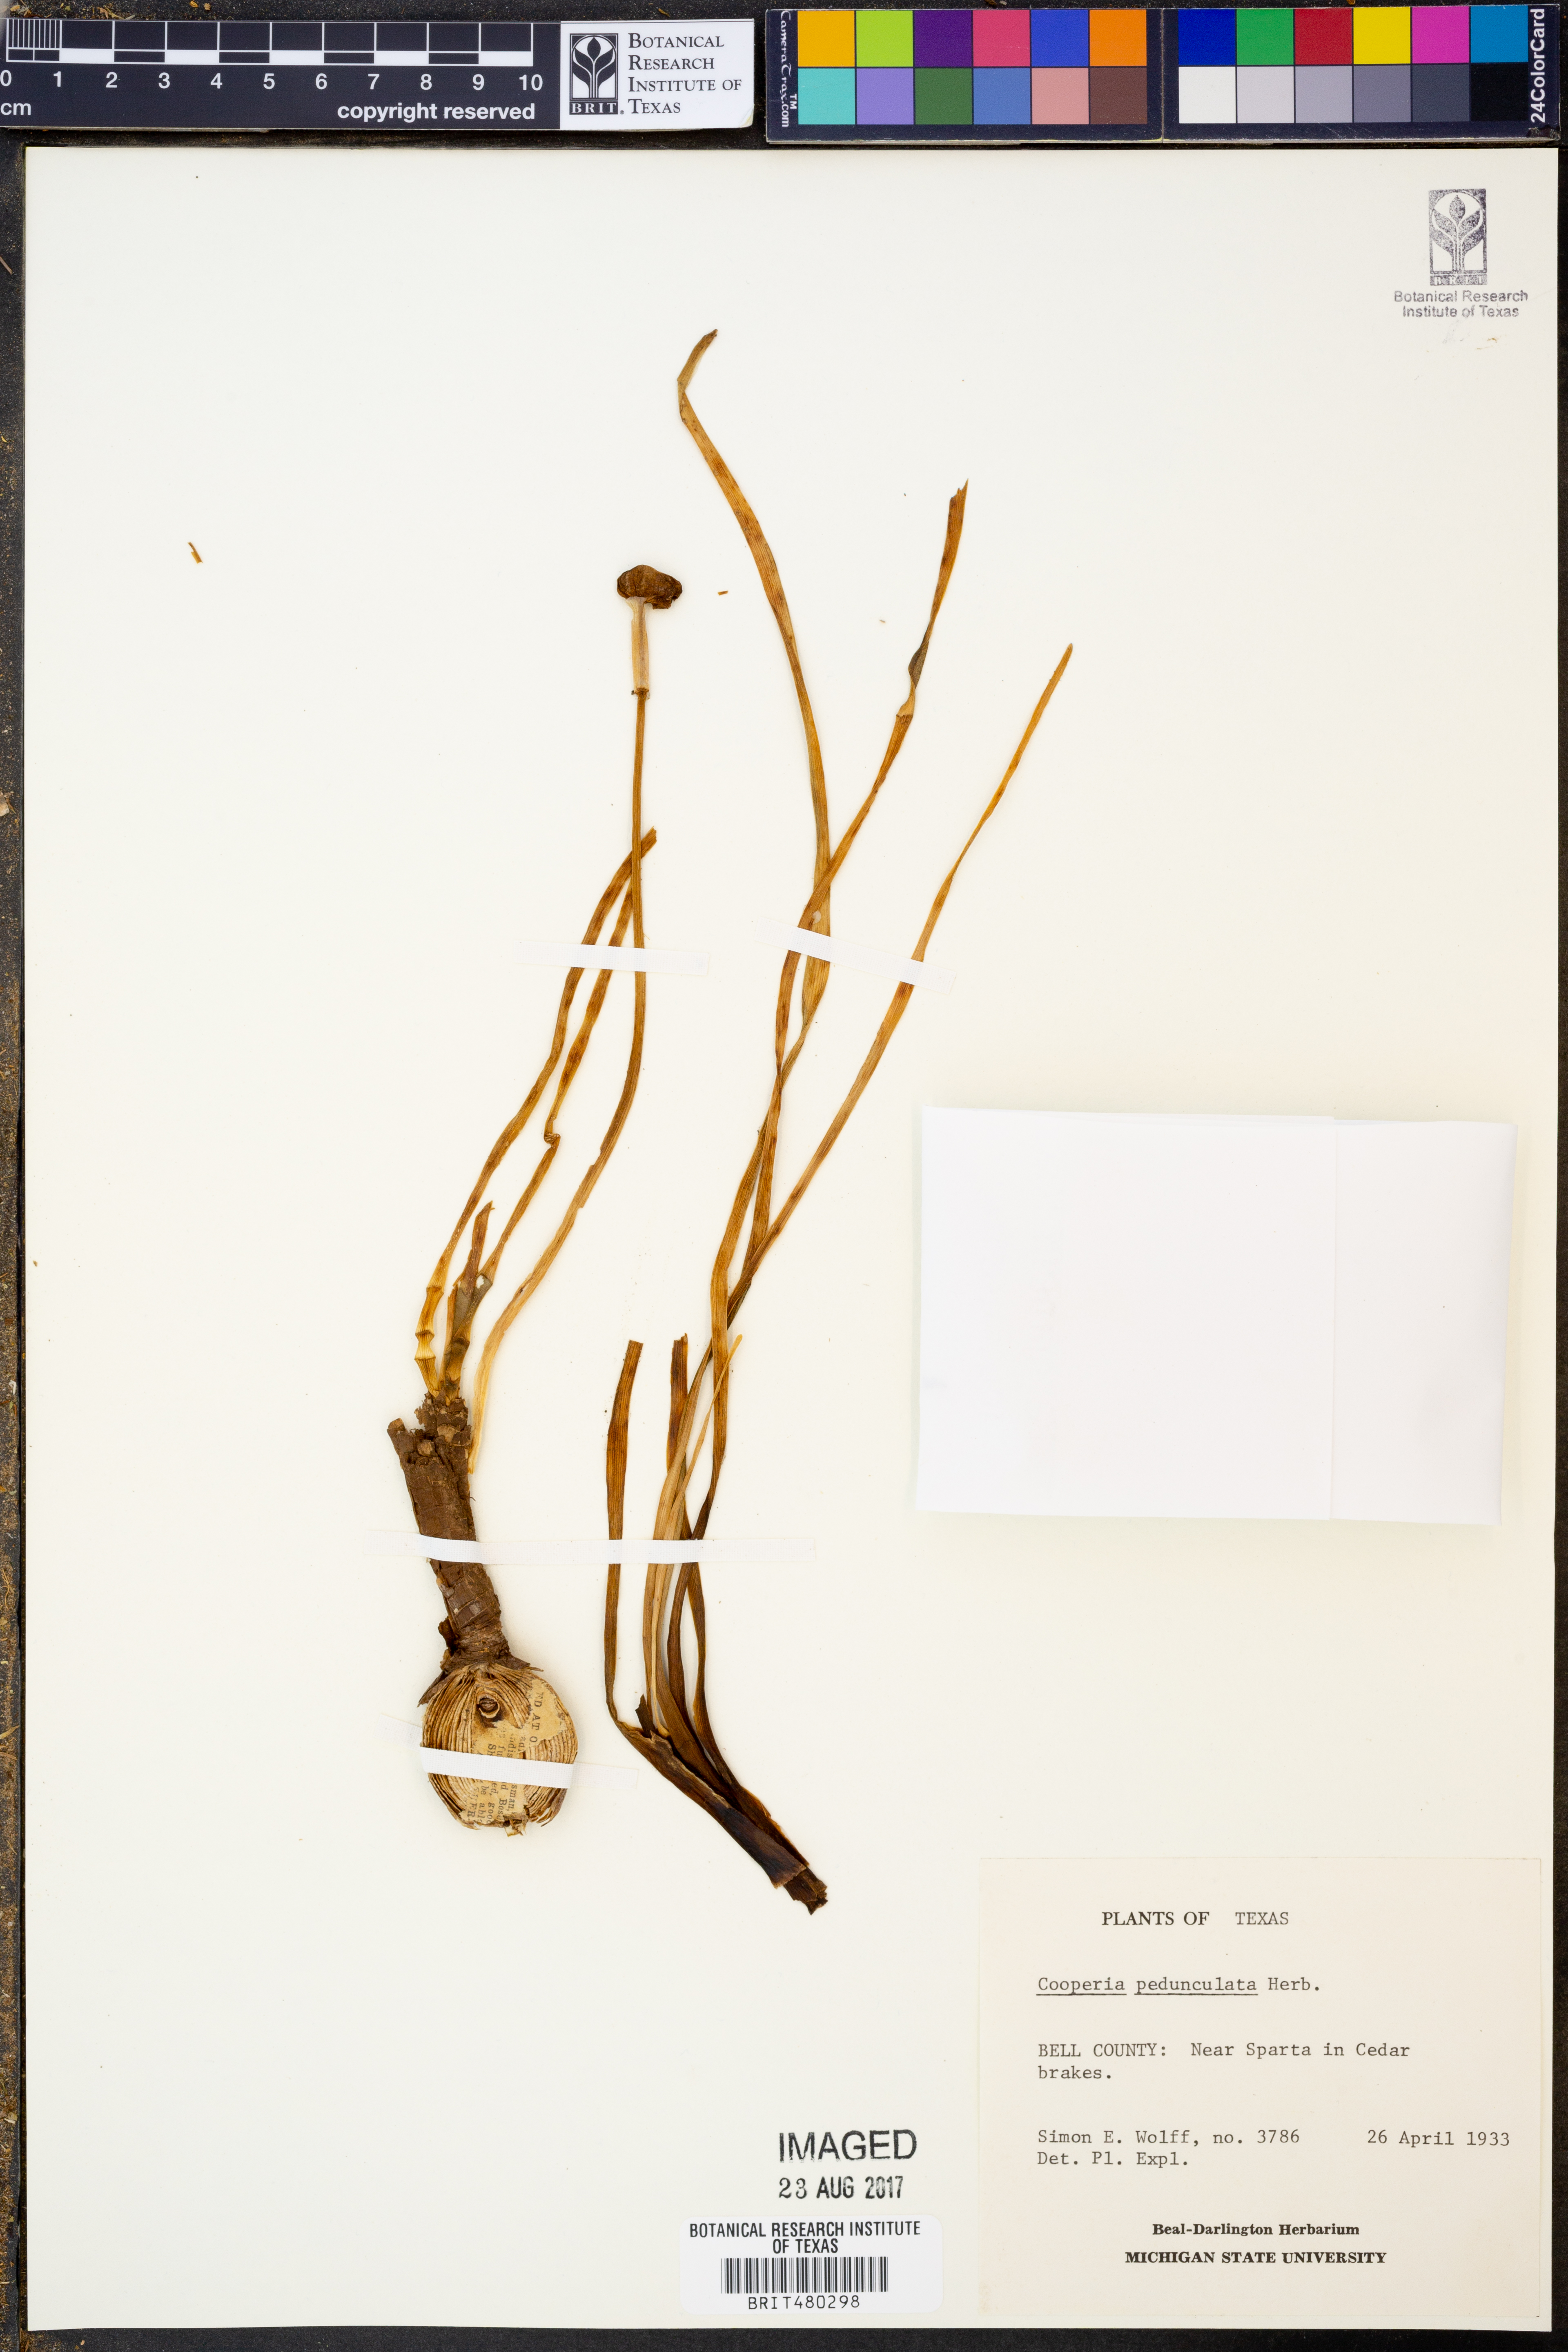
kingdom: Plantae
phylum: Tracheophyta
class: Liliopsida
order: Asparagales
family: Amaryllidaceae
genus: Zephyranthes
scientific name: Zephyranthes drummondii
